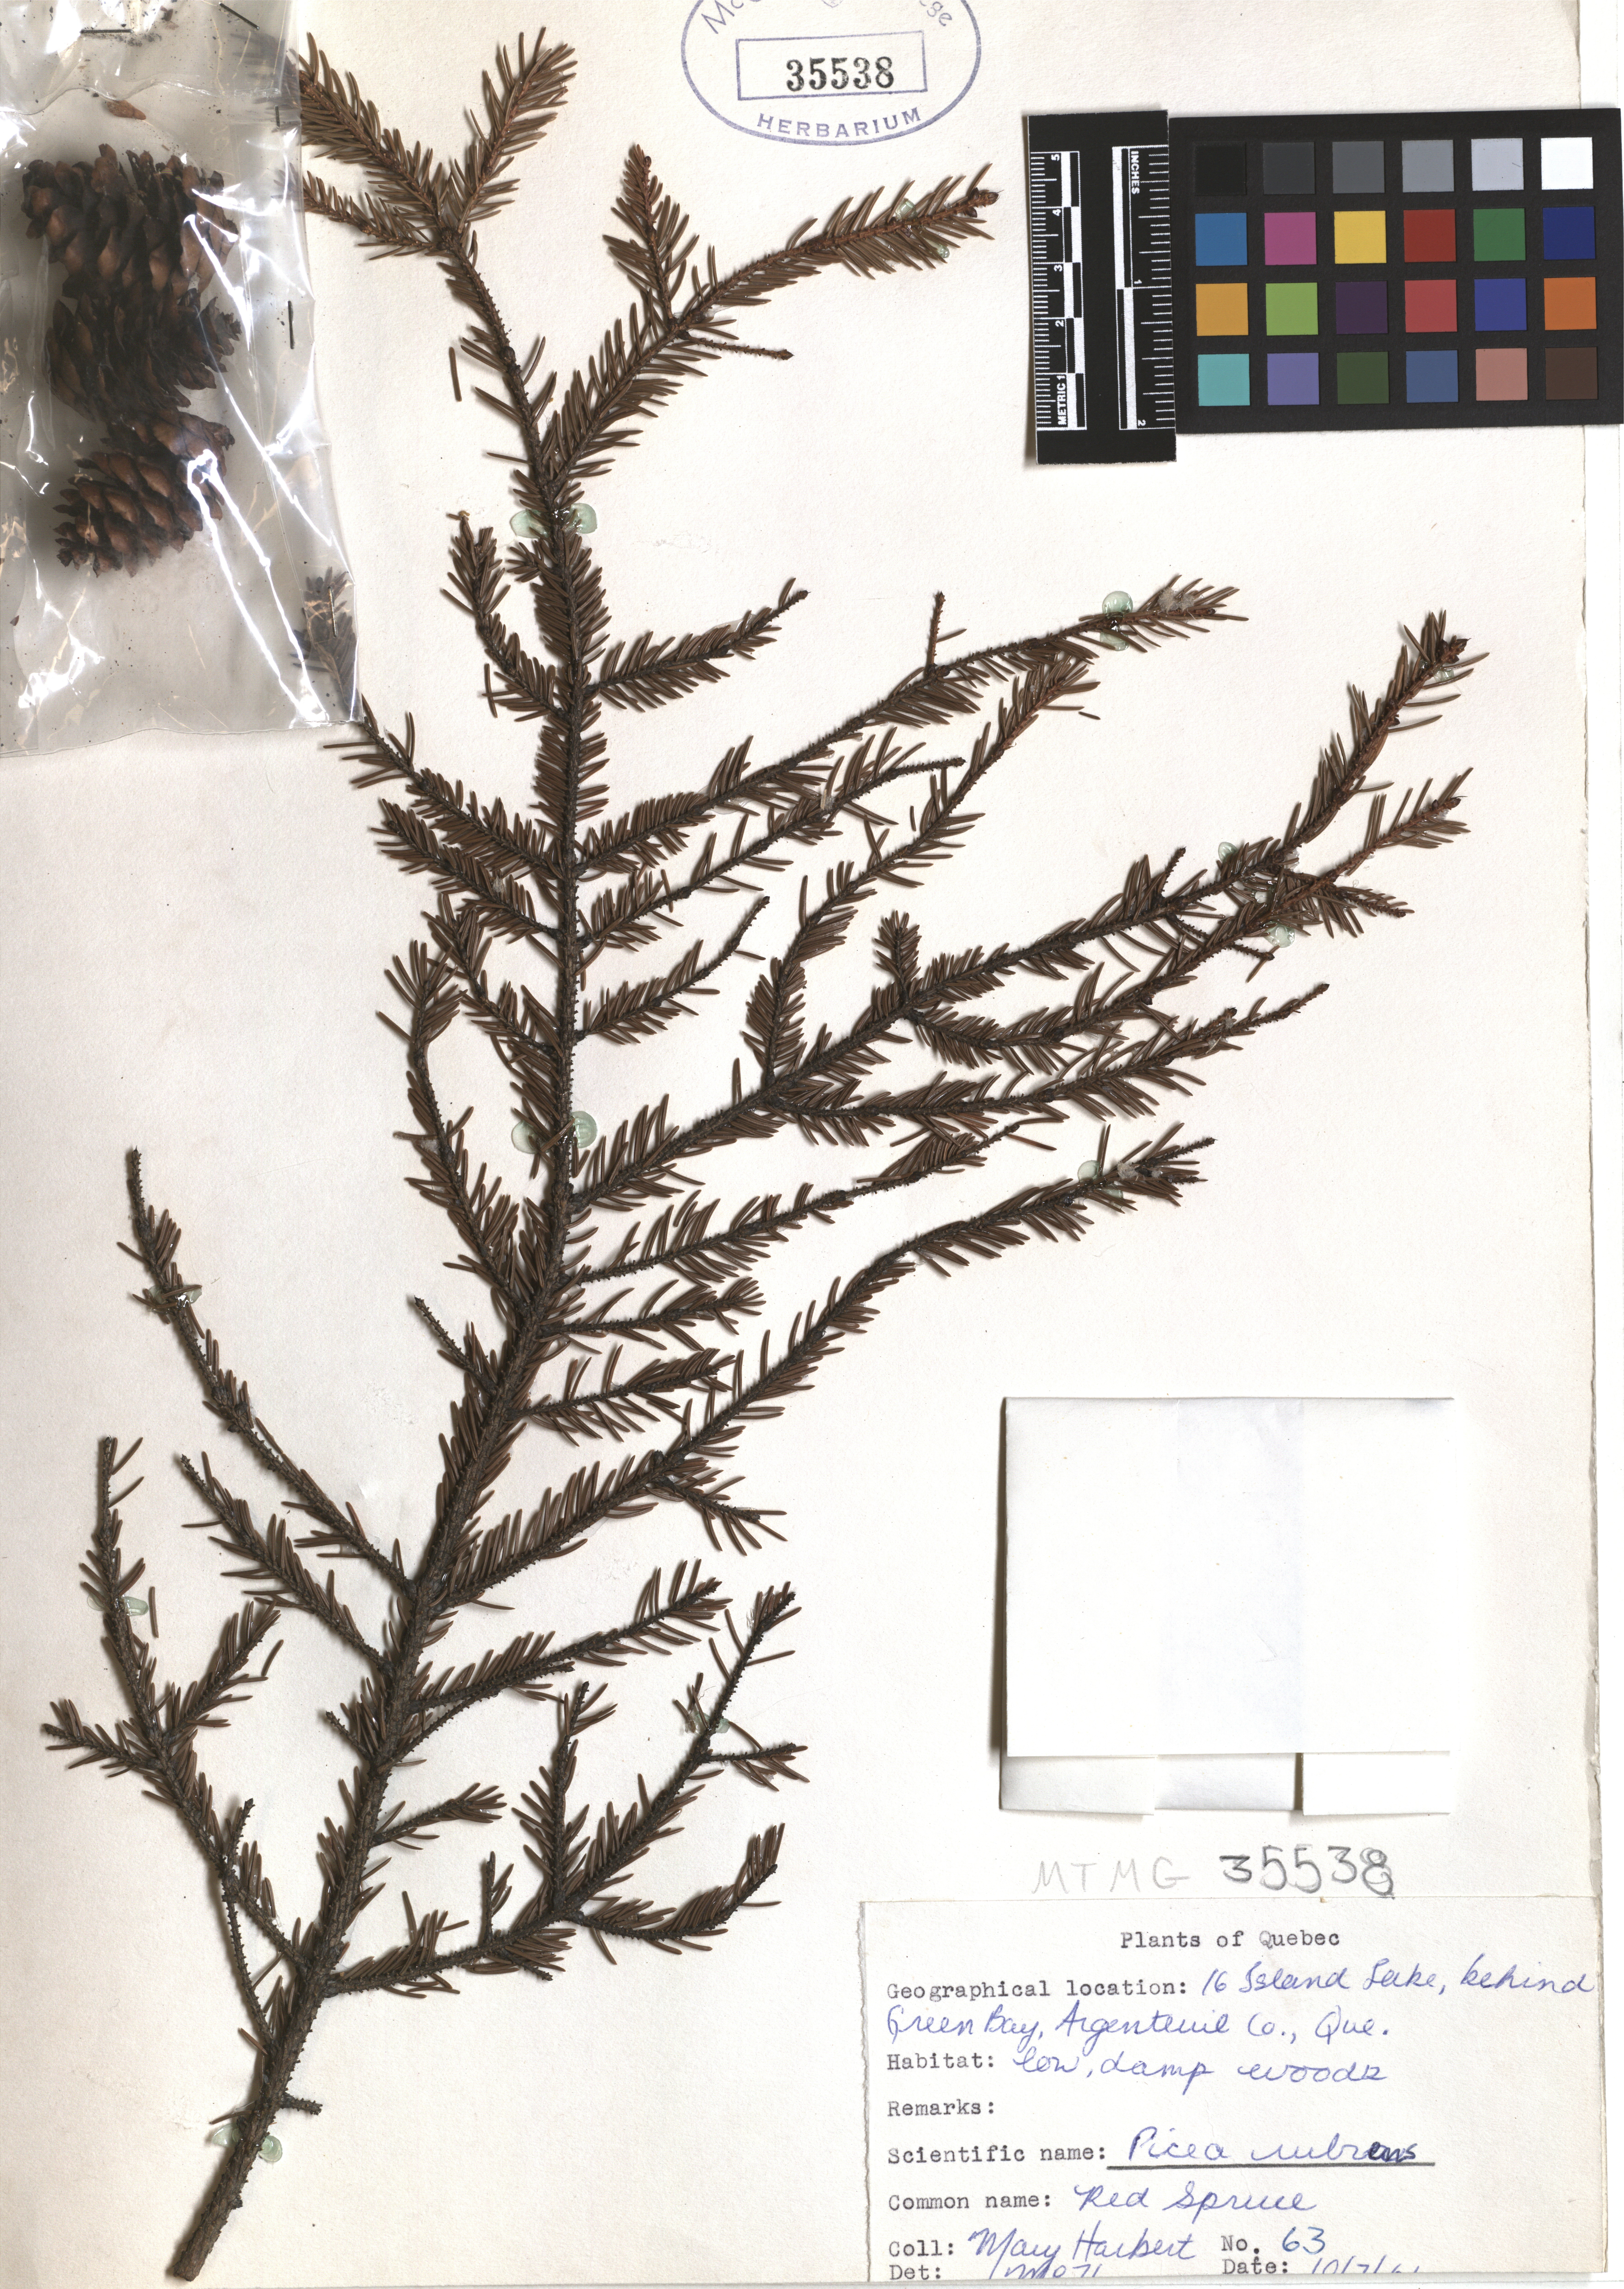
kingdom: Plantae
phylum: Tracheophyta
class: Pinopsida
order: Pinales
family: Pinaceae
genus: Picea
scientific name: Picea rubens
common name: Red spruce
